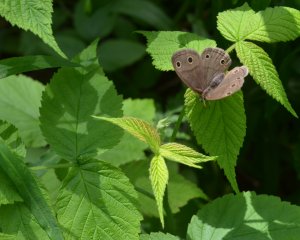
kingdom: Animalia
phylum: Arthropoda
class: Insecta
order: Lepidoptera
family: Nymphalidae
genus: Euptychia
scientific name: Euptychia cymela
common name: Little Wood Satyr
